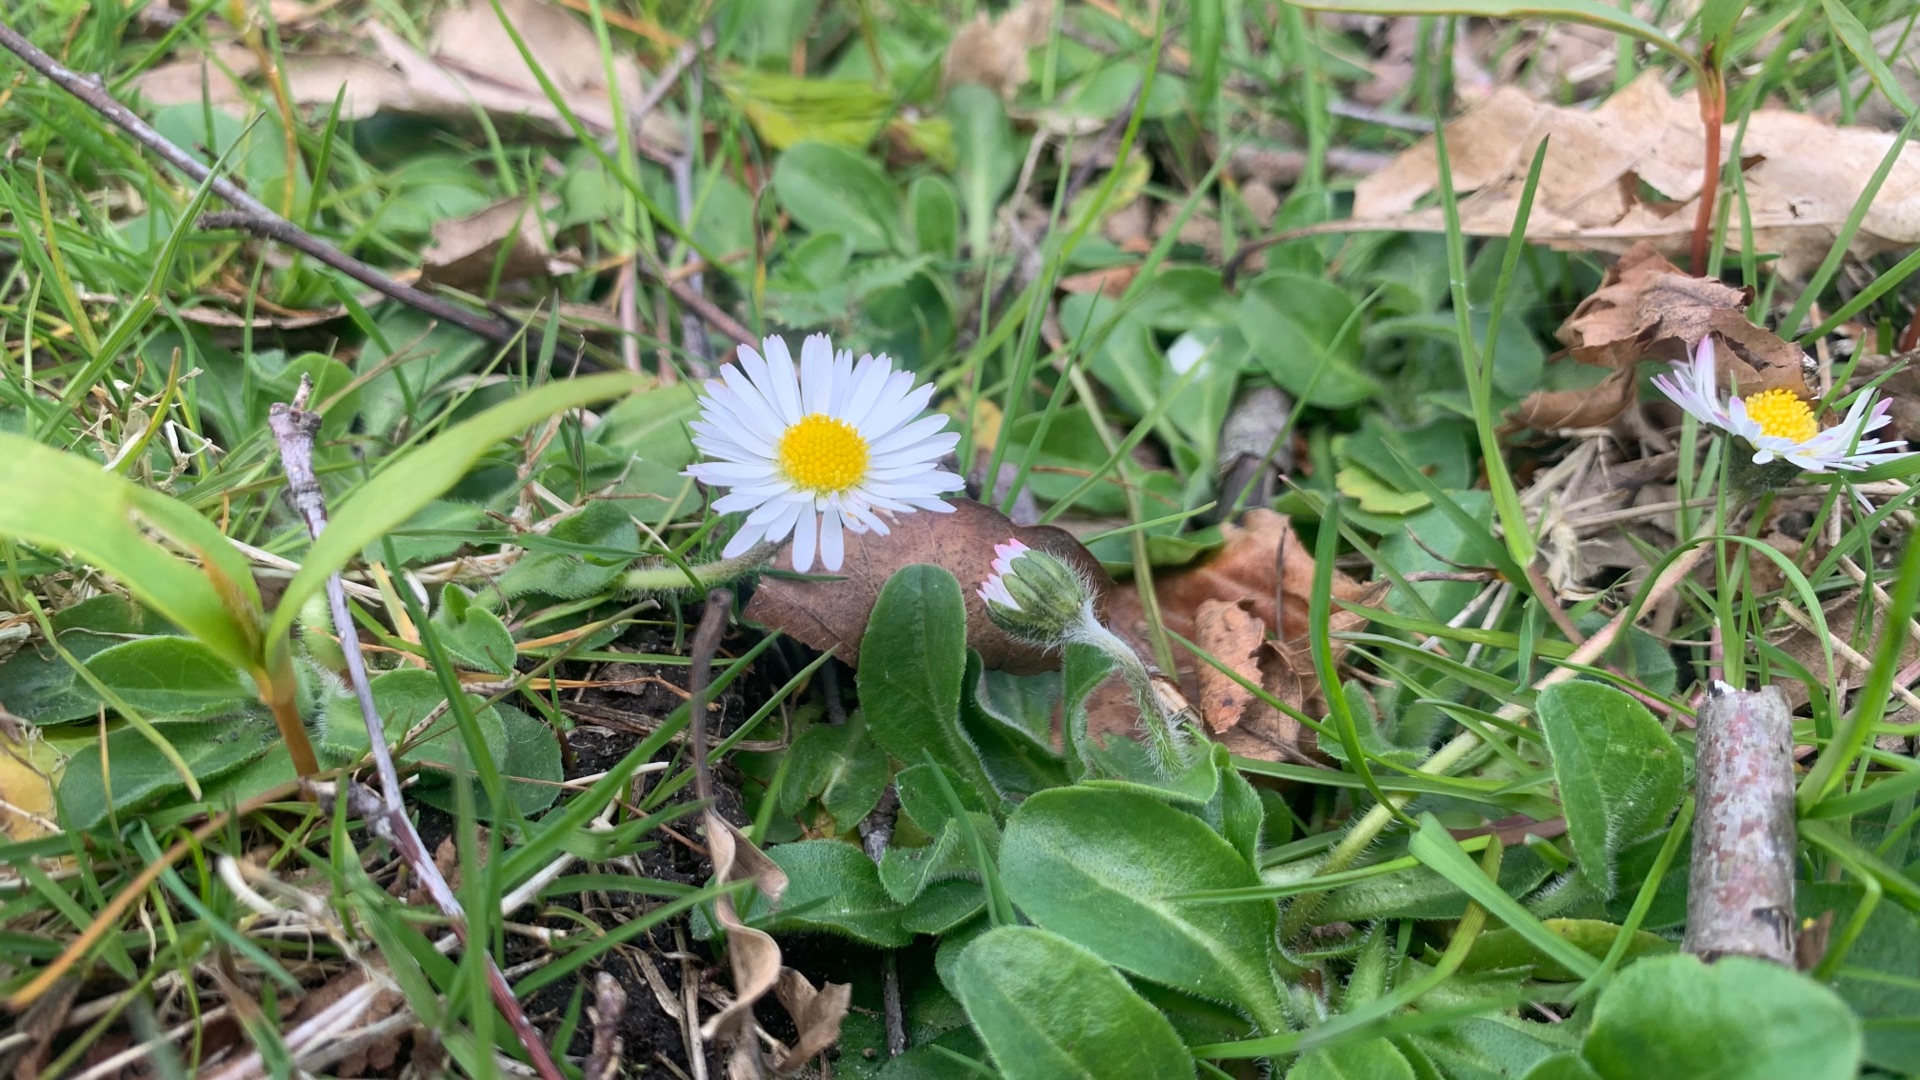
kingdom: Plantae
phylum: Tracheophyta
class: Magnoliopsida
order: Asterales
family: Asteraceae
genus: Bellis
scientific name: Bellis perennis
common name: Tusindfryd
